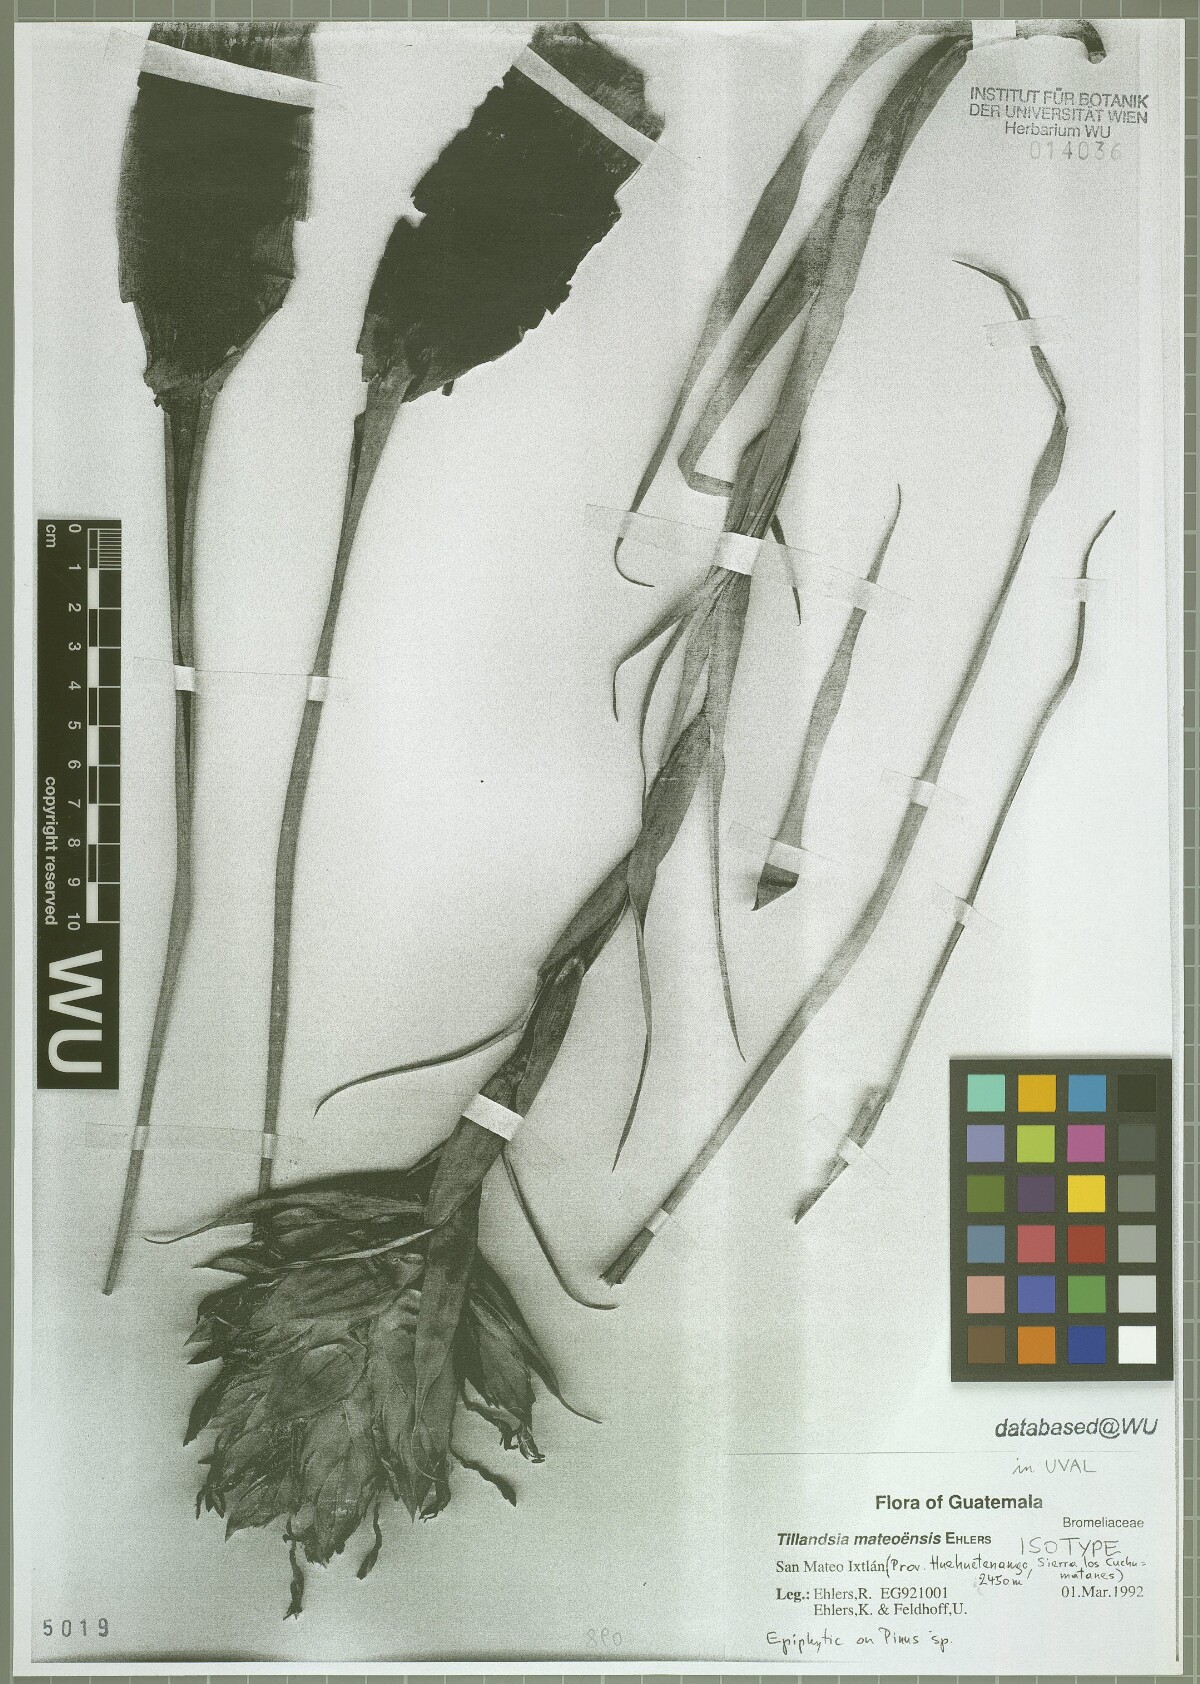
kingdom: Plantae
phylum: Tracheophyta
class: Liliopsida
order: Poales
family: Bromeliaceae
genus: Tillandsia
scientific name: Tillandsia mateoensis
